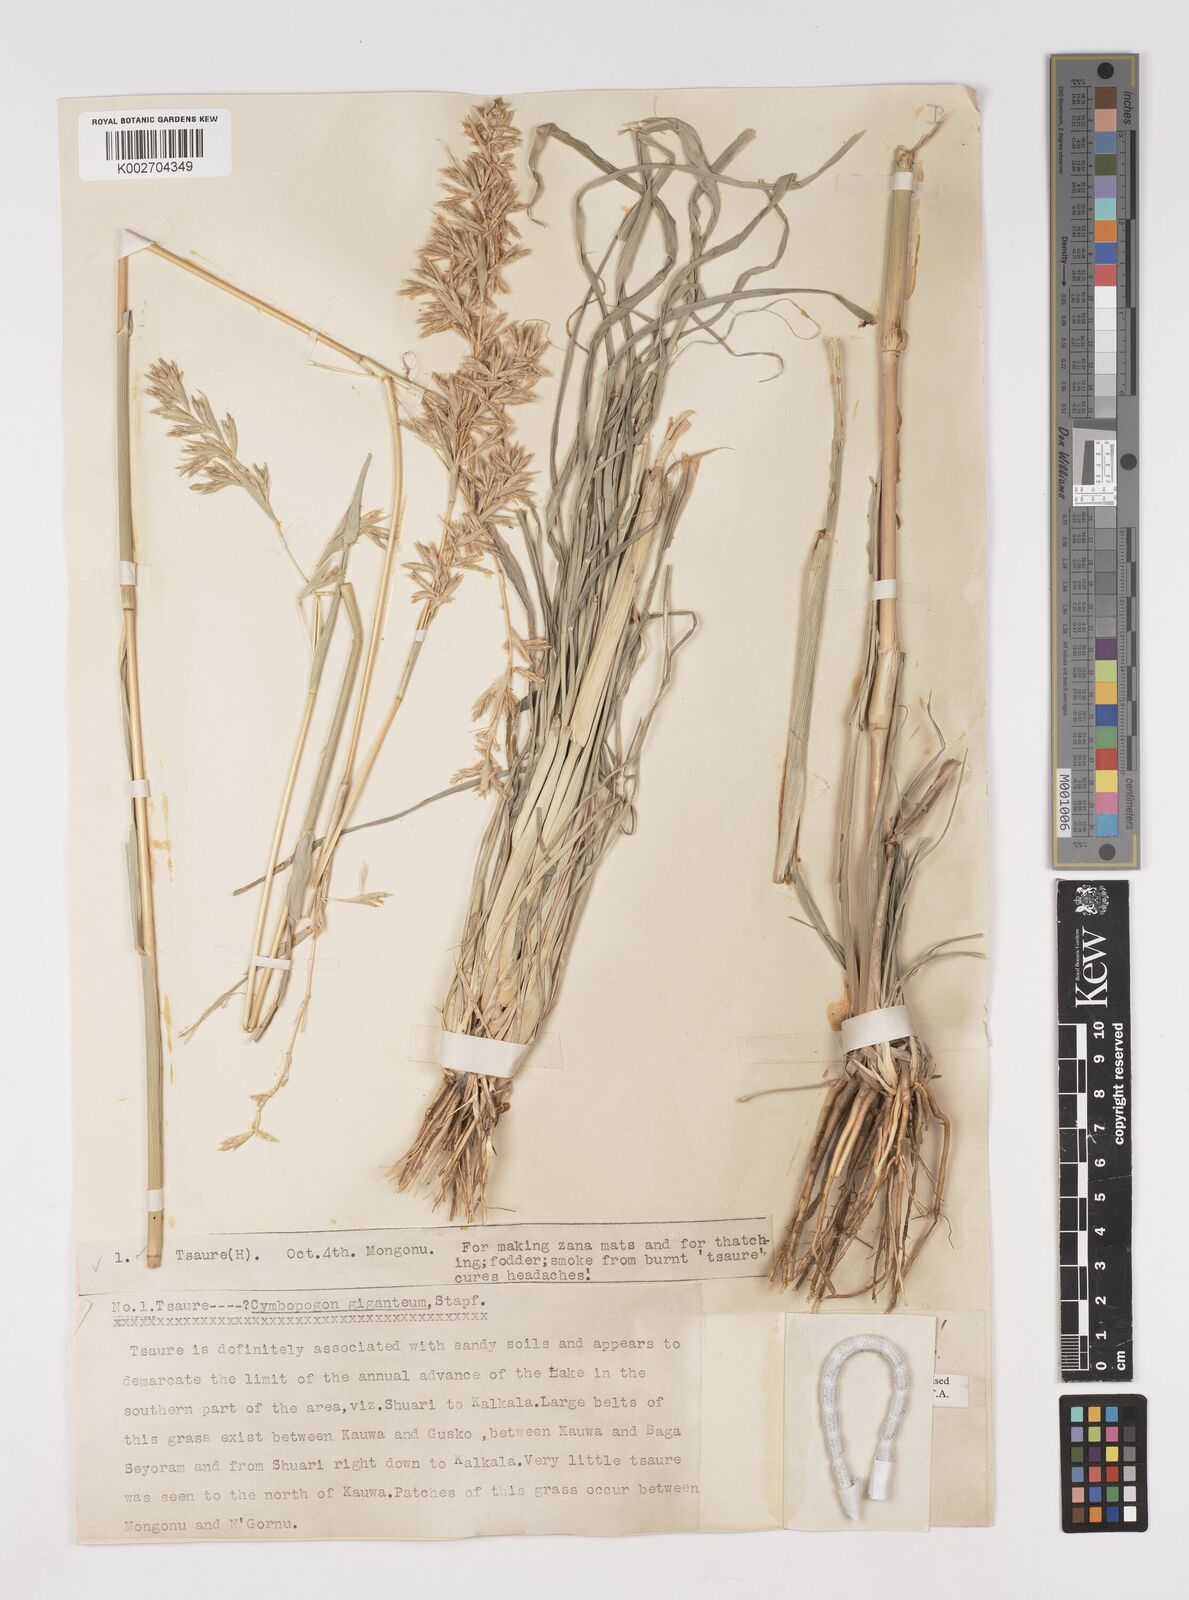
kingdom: Plantae
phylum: Tracheophyta
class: Liliopsida
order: Poales
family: Poaceae
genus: Cymbopogon
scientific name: Cymbopogon giganteus
